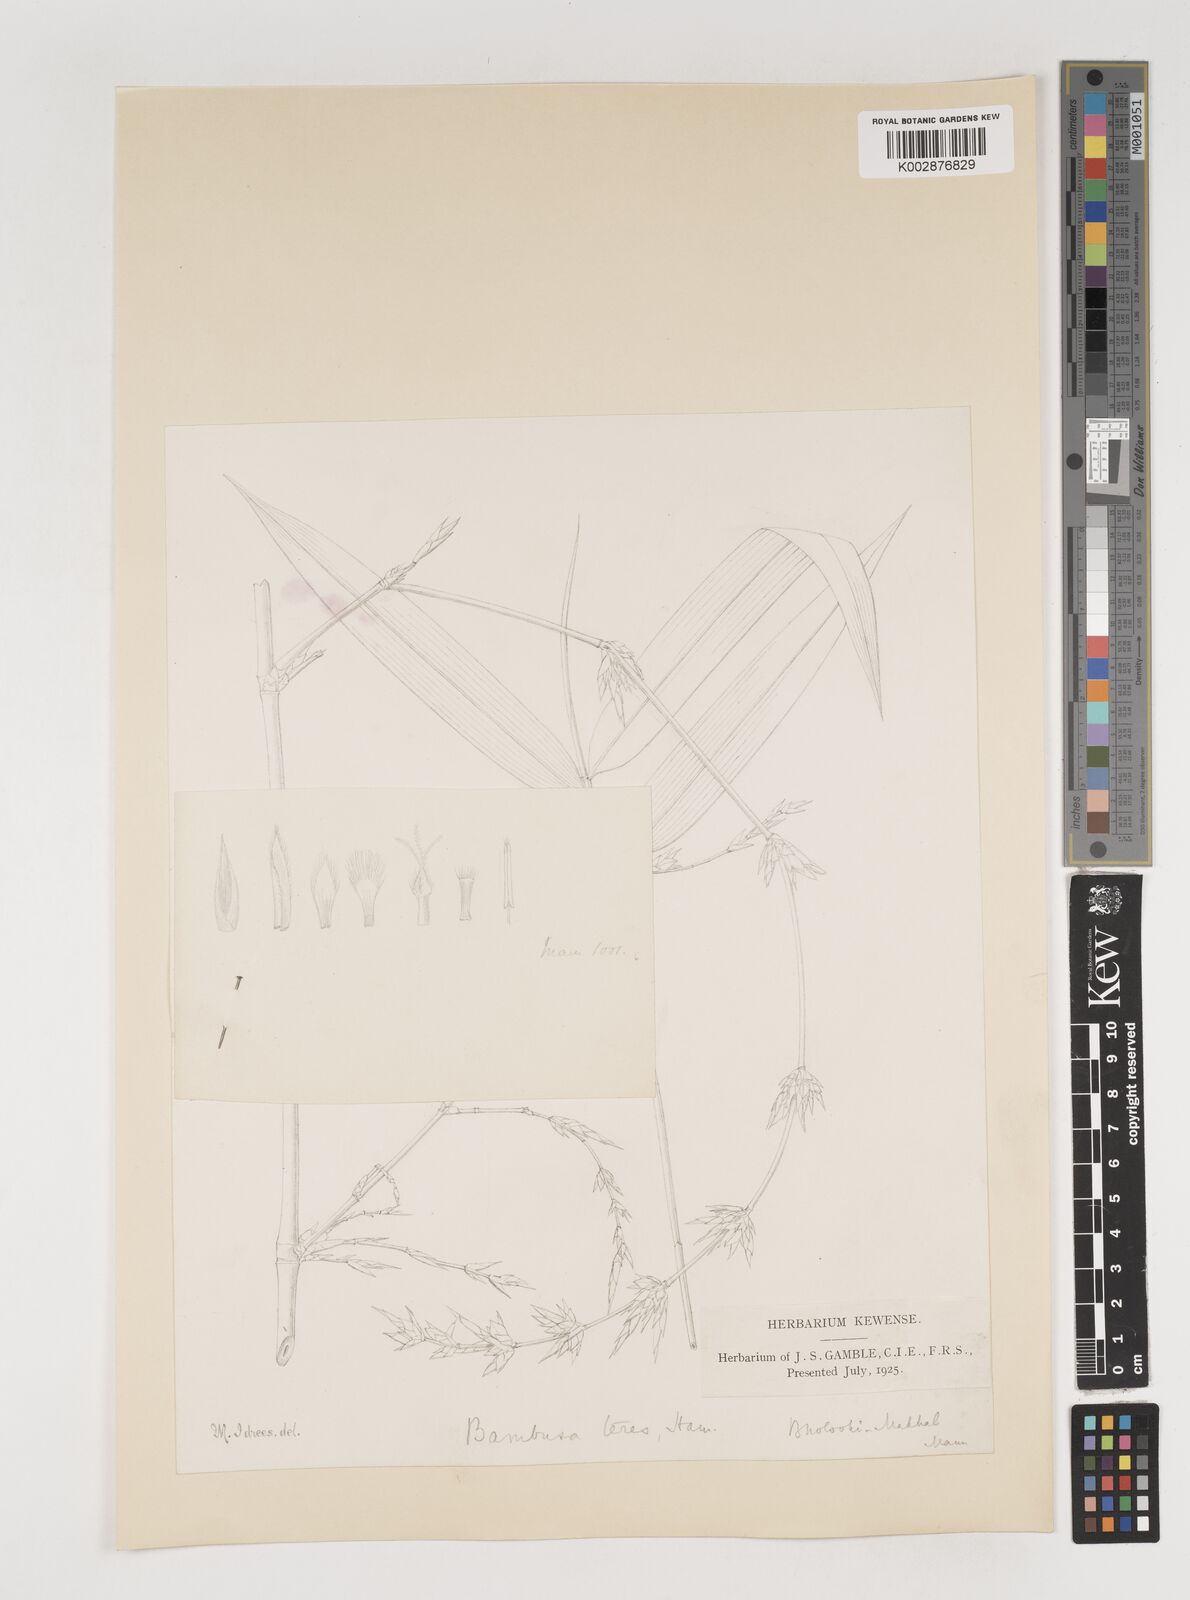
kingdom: Plantae
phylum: Tracheophyta
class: Liliopsida
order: Poales
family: Poaceae
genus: Bambusa
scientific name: Bambusa teres
